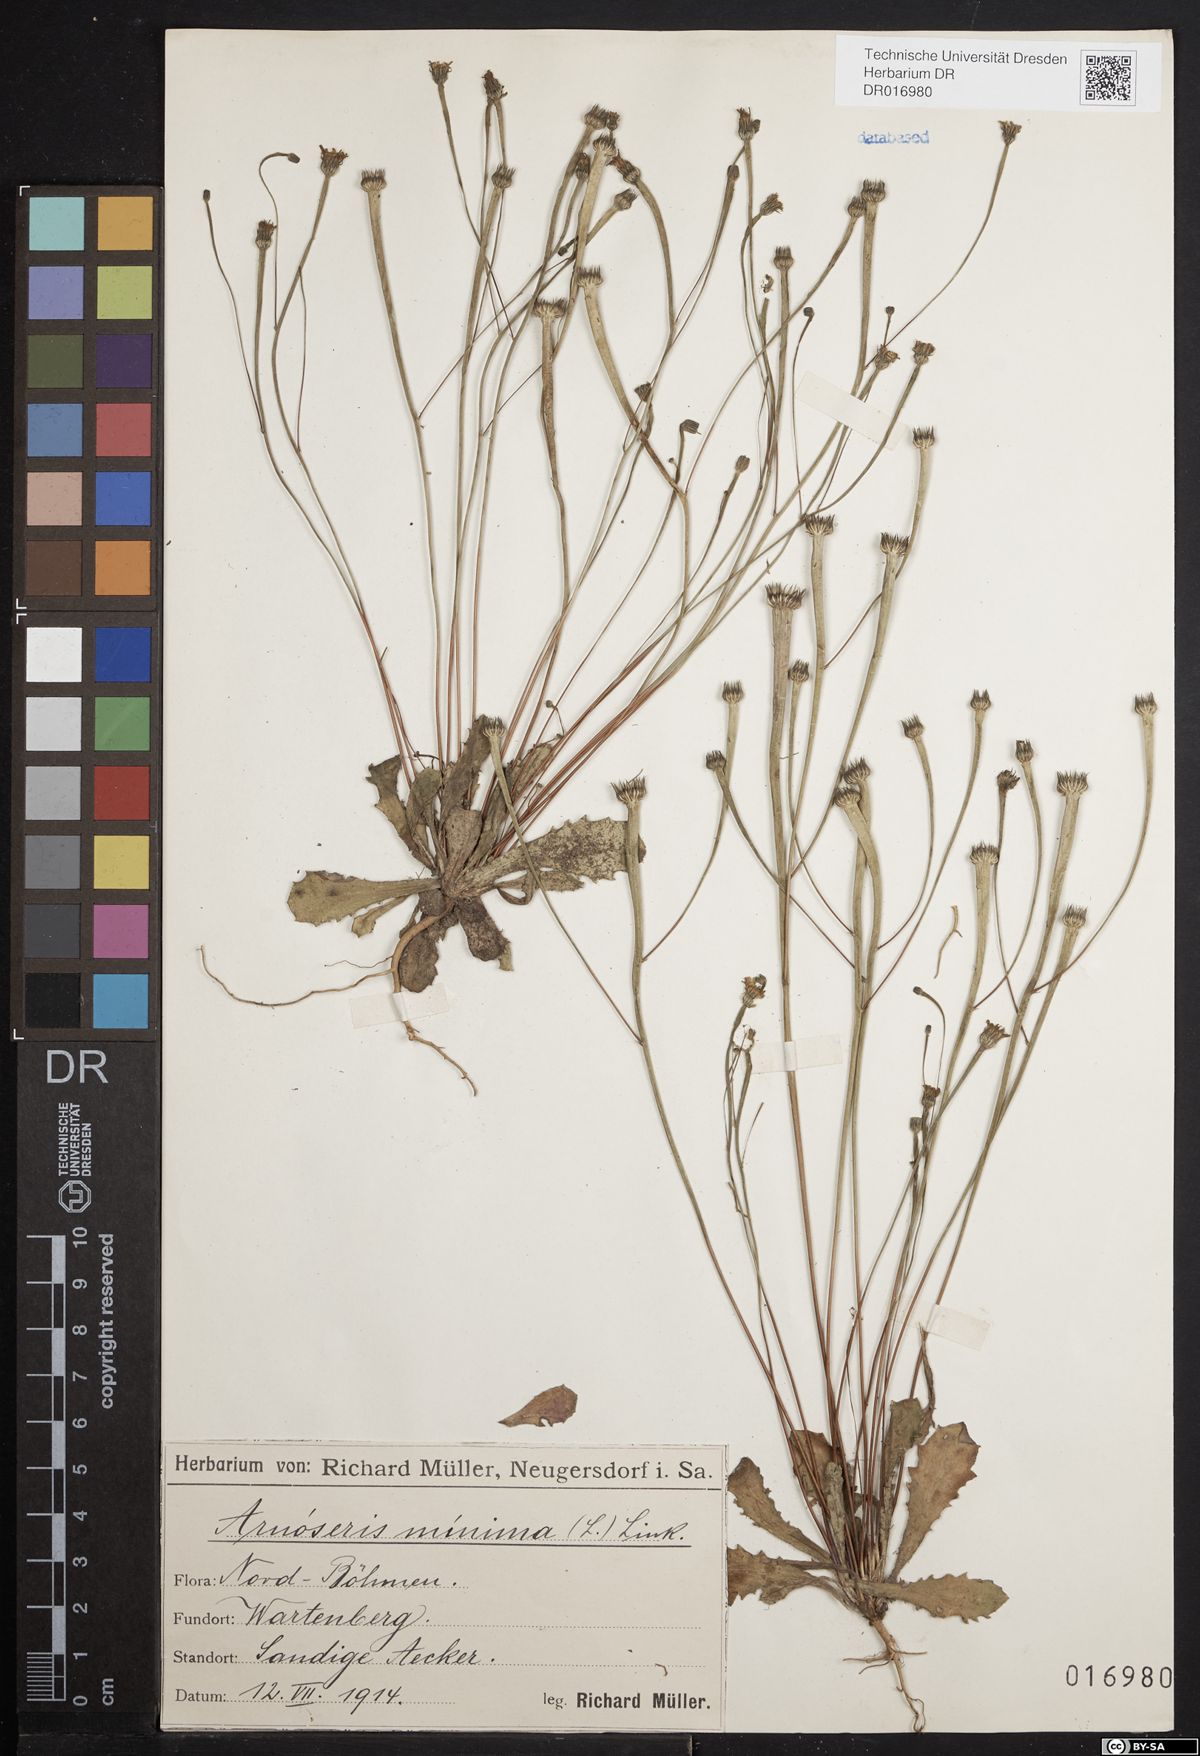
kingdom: Plantae
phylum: Tracheophyta
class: Magnoliopsida
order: Asterales
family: Asteraceae
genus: Arnoseris
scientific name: Arnoseris minima
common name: Lamb's succory
